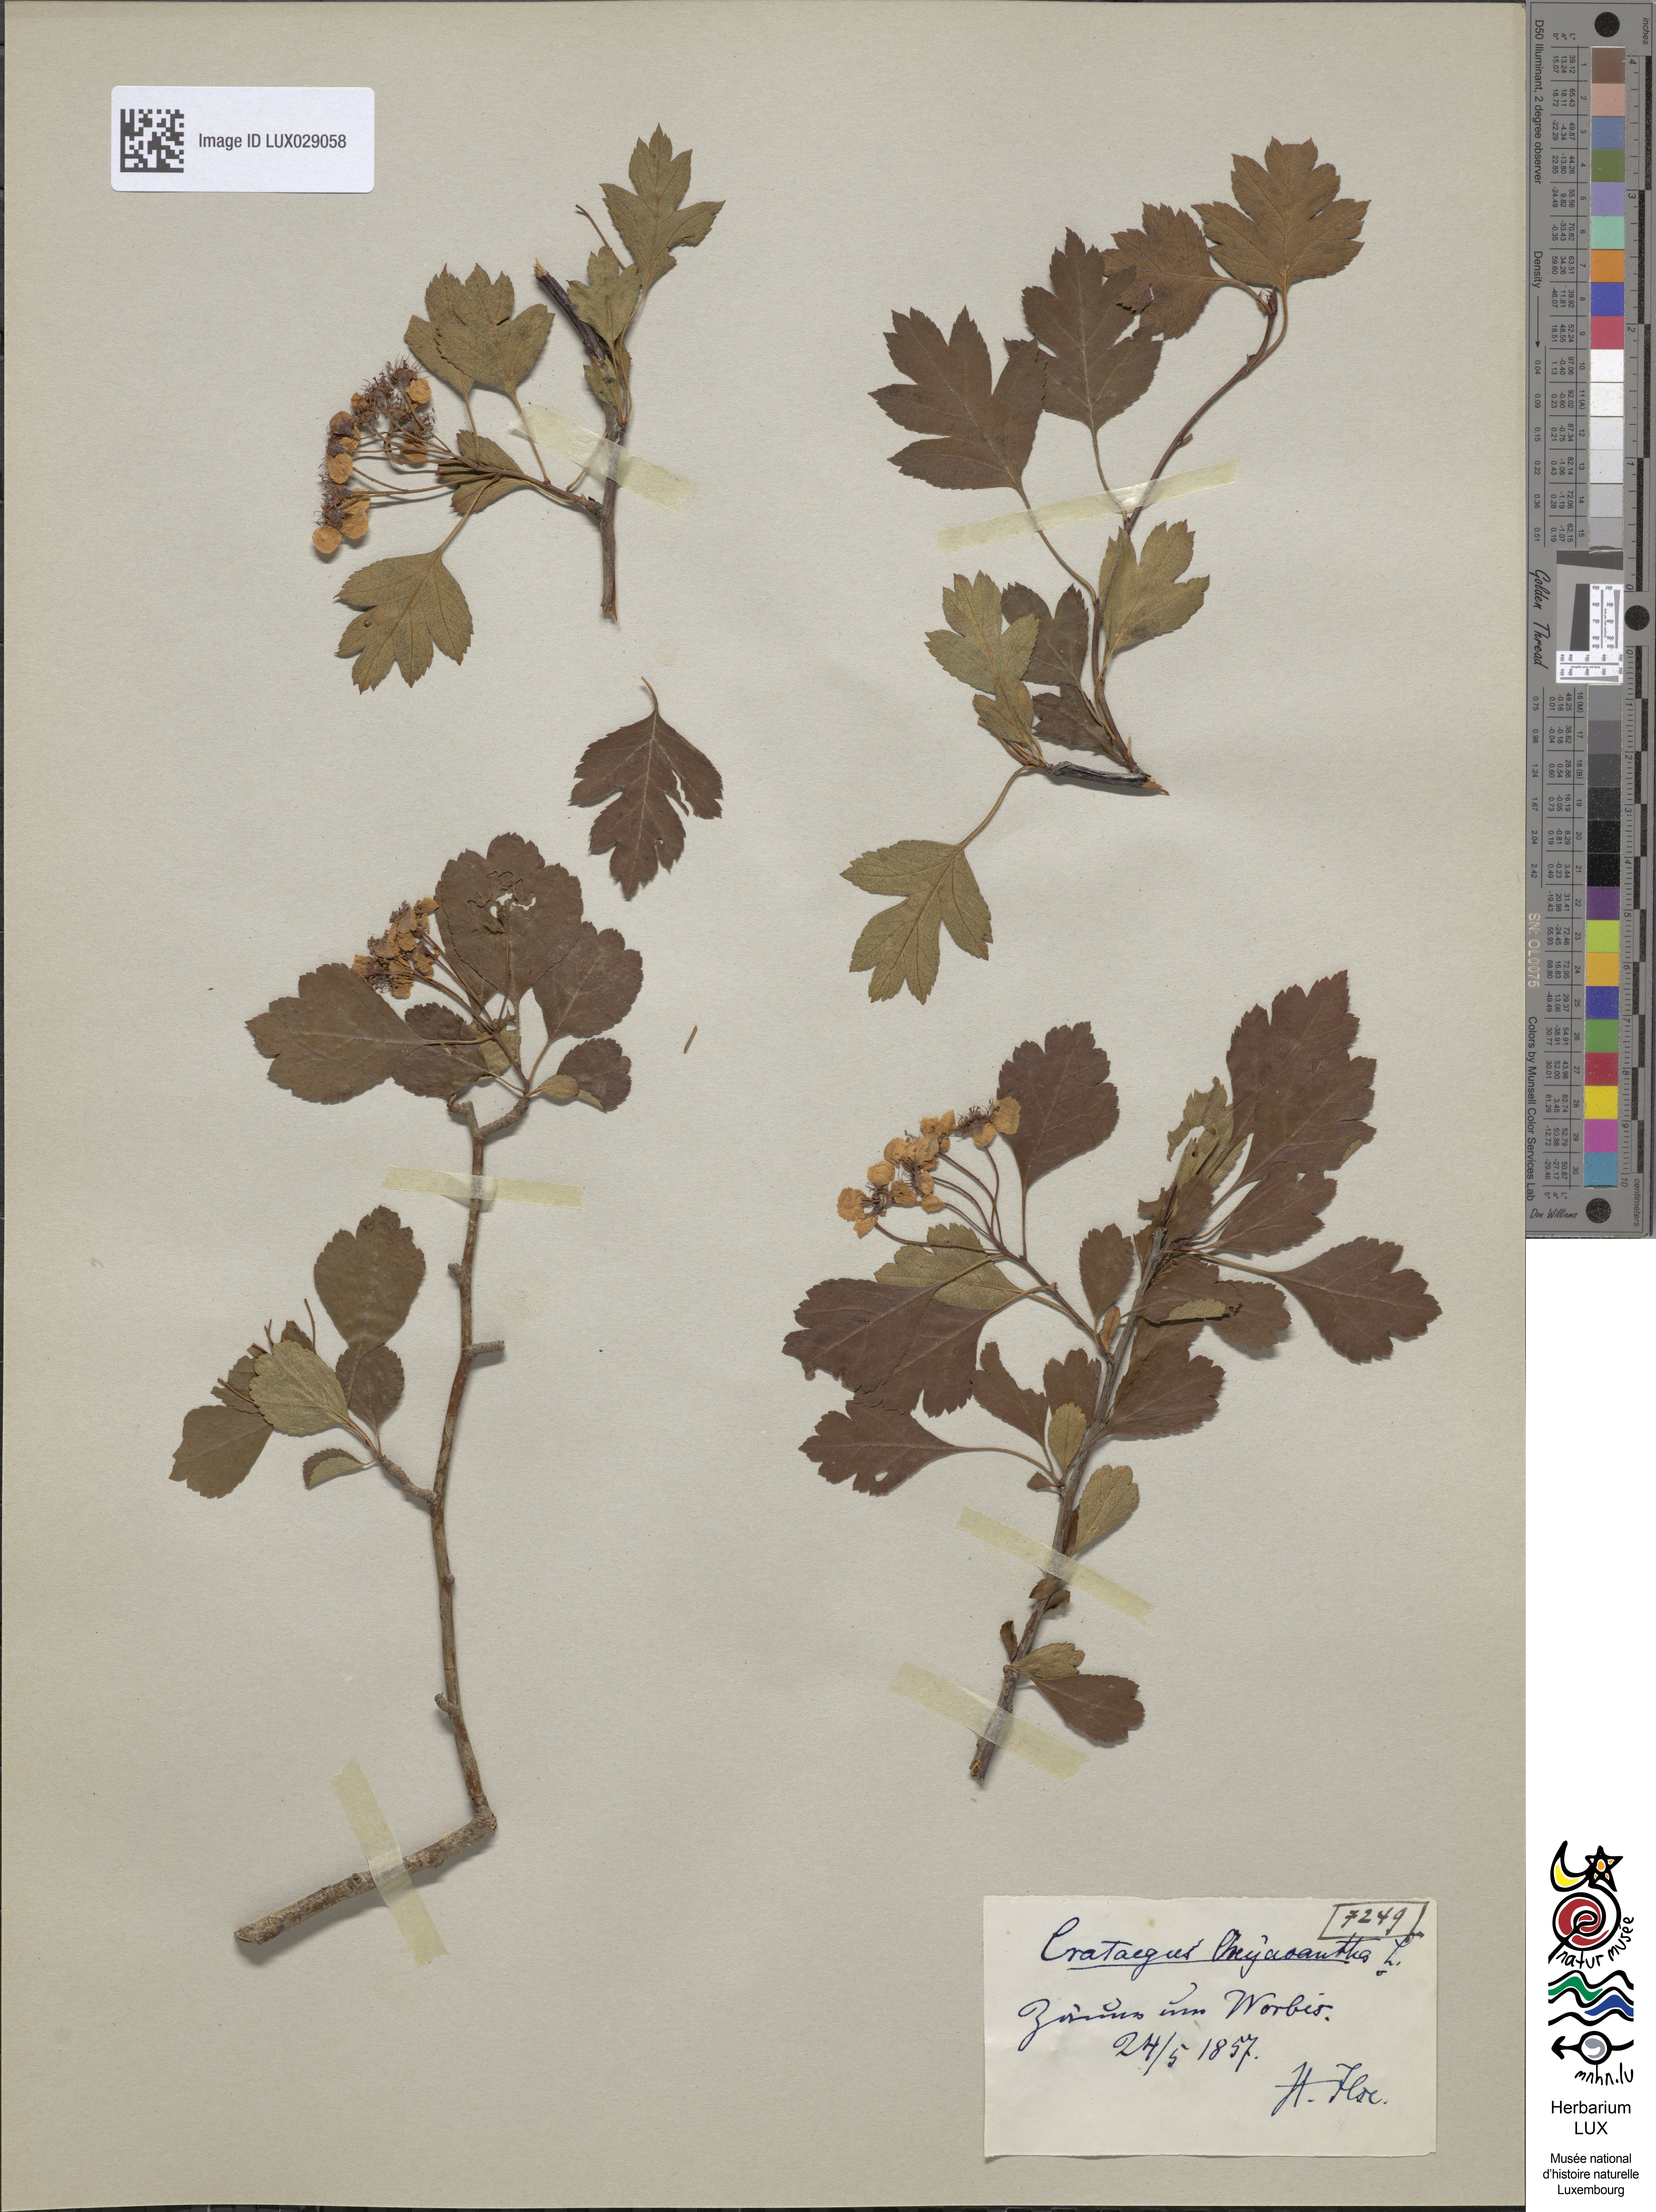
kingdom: Plantae
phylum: Tracheophyta
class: Magnoliopsida
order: Rosales
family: Rosaceae
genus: Crataegus
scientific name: Crataegus monogyna
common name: Hawthorn
